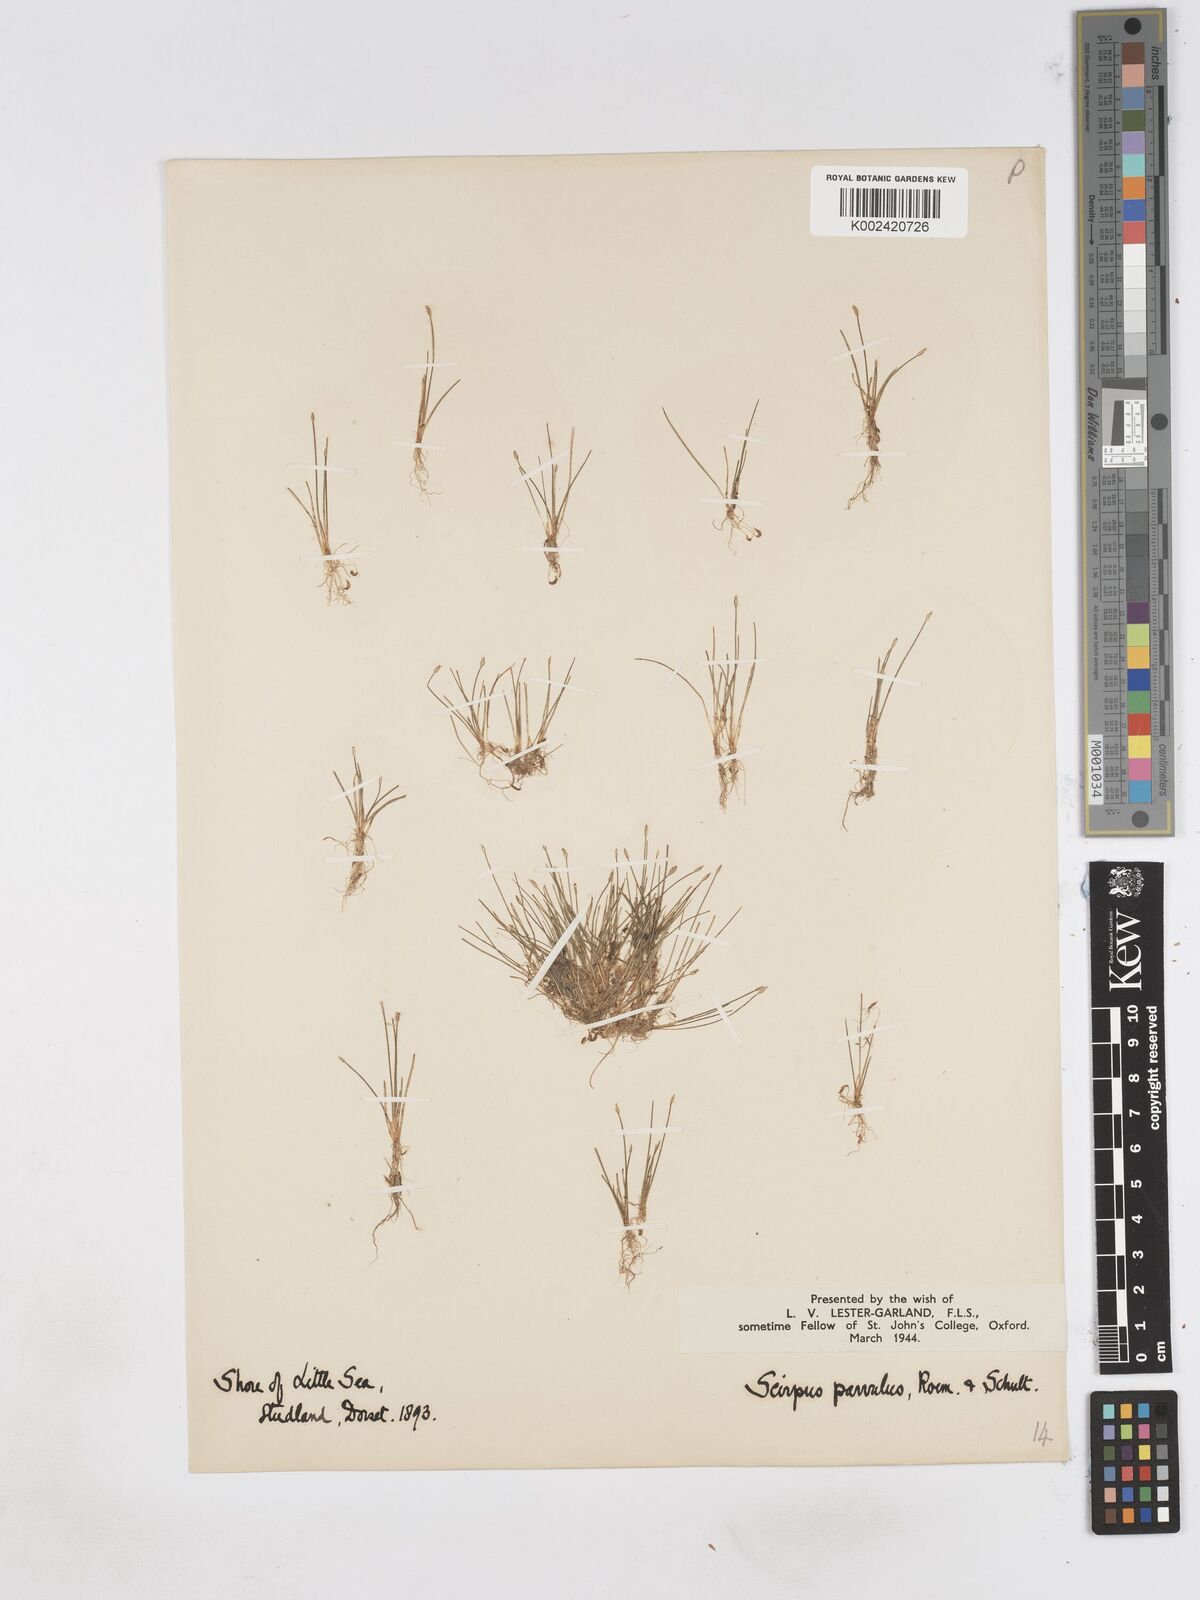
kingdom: Plantae
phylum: Tracheophyta
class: Liliopsida
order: Poales
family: Cyperaceae
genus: Eleocharis
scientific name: Eleocharis parvula
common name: Dwarf spike-rush
